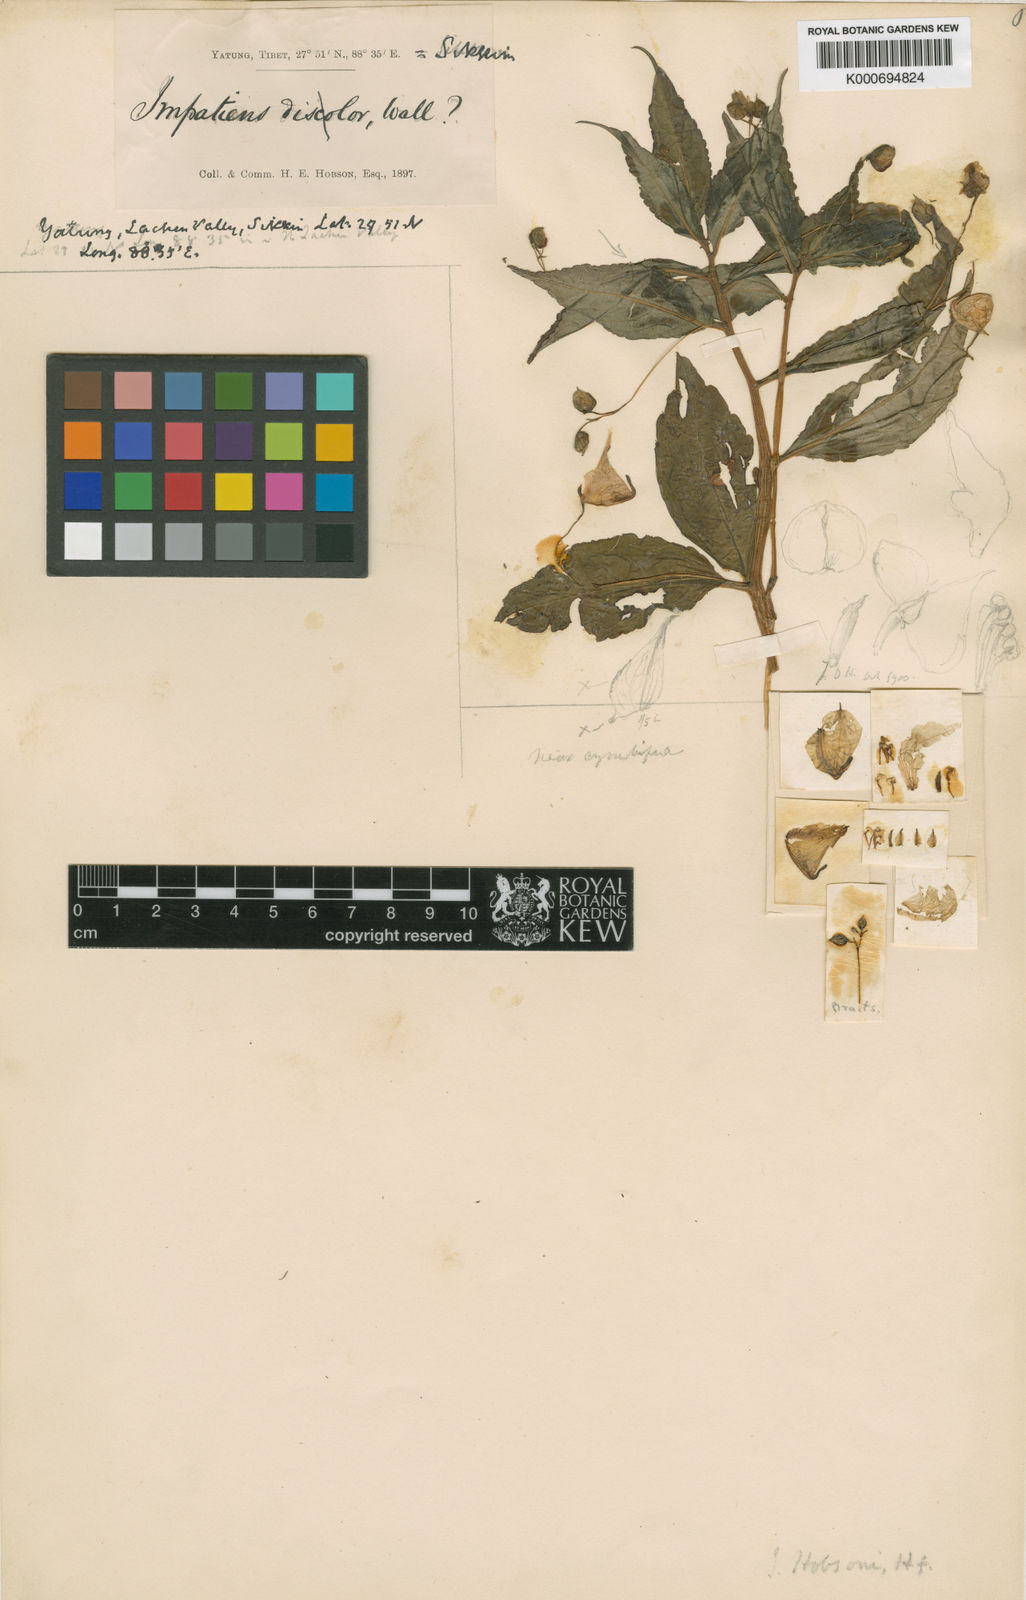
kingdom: Plantae
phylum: Tracheophyta
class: Magnoliopsida
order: Ericales
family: Balsaminaceae
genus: Impatiens
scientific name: Impatiens kingii
